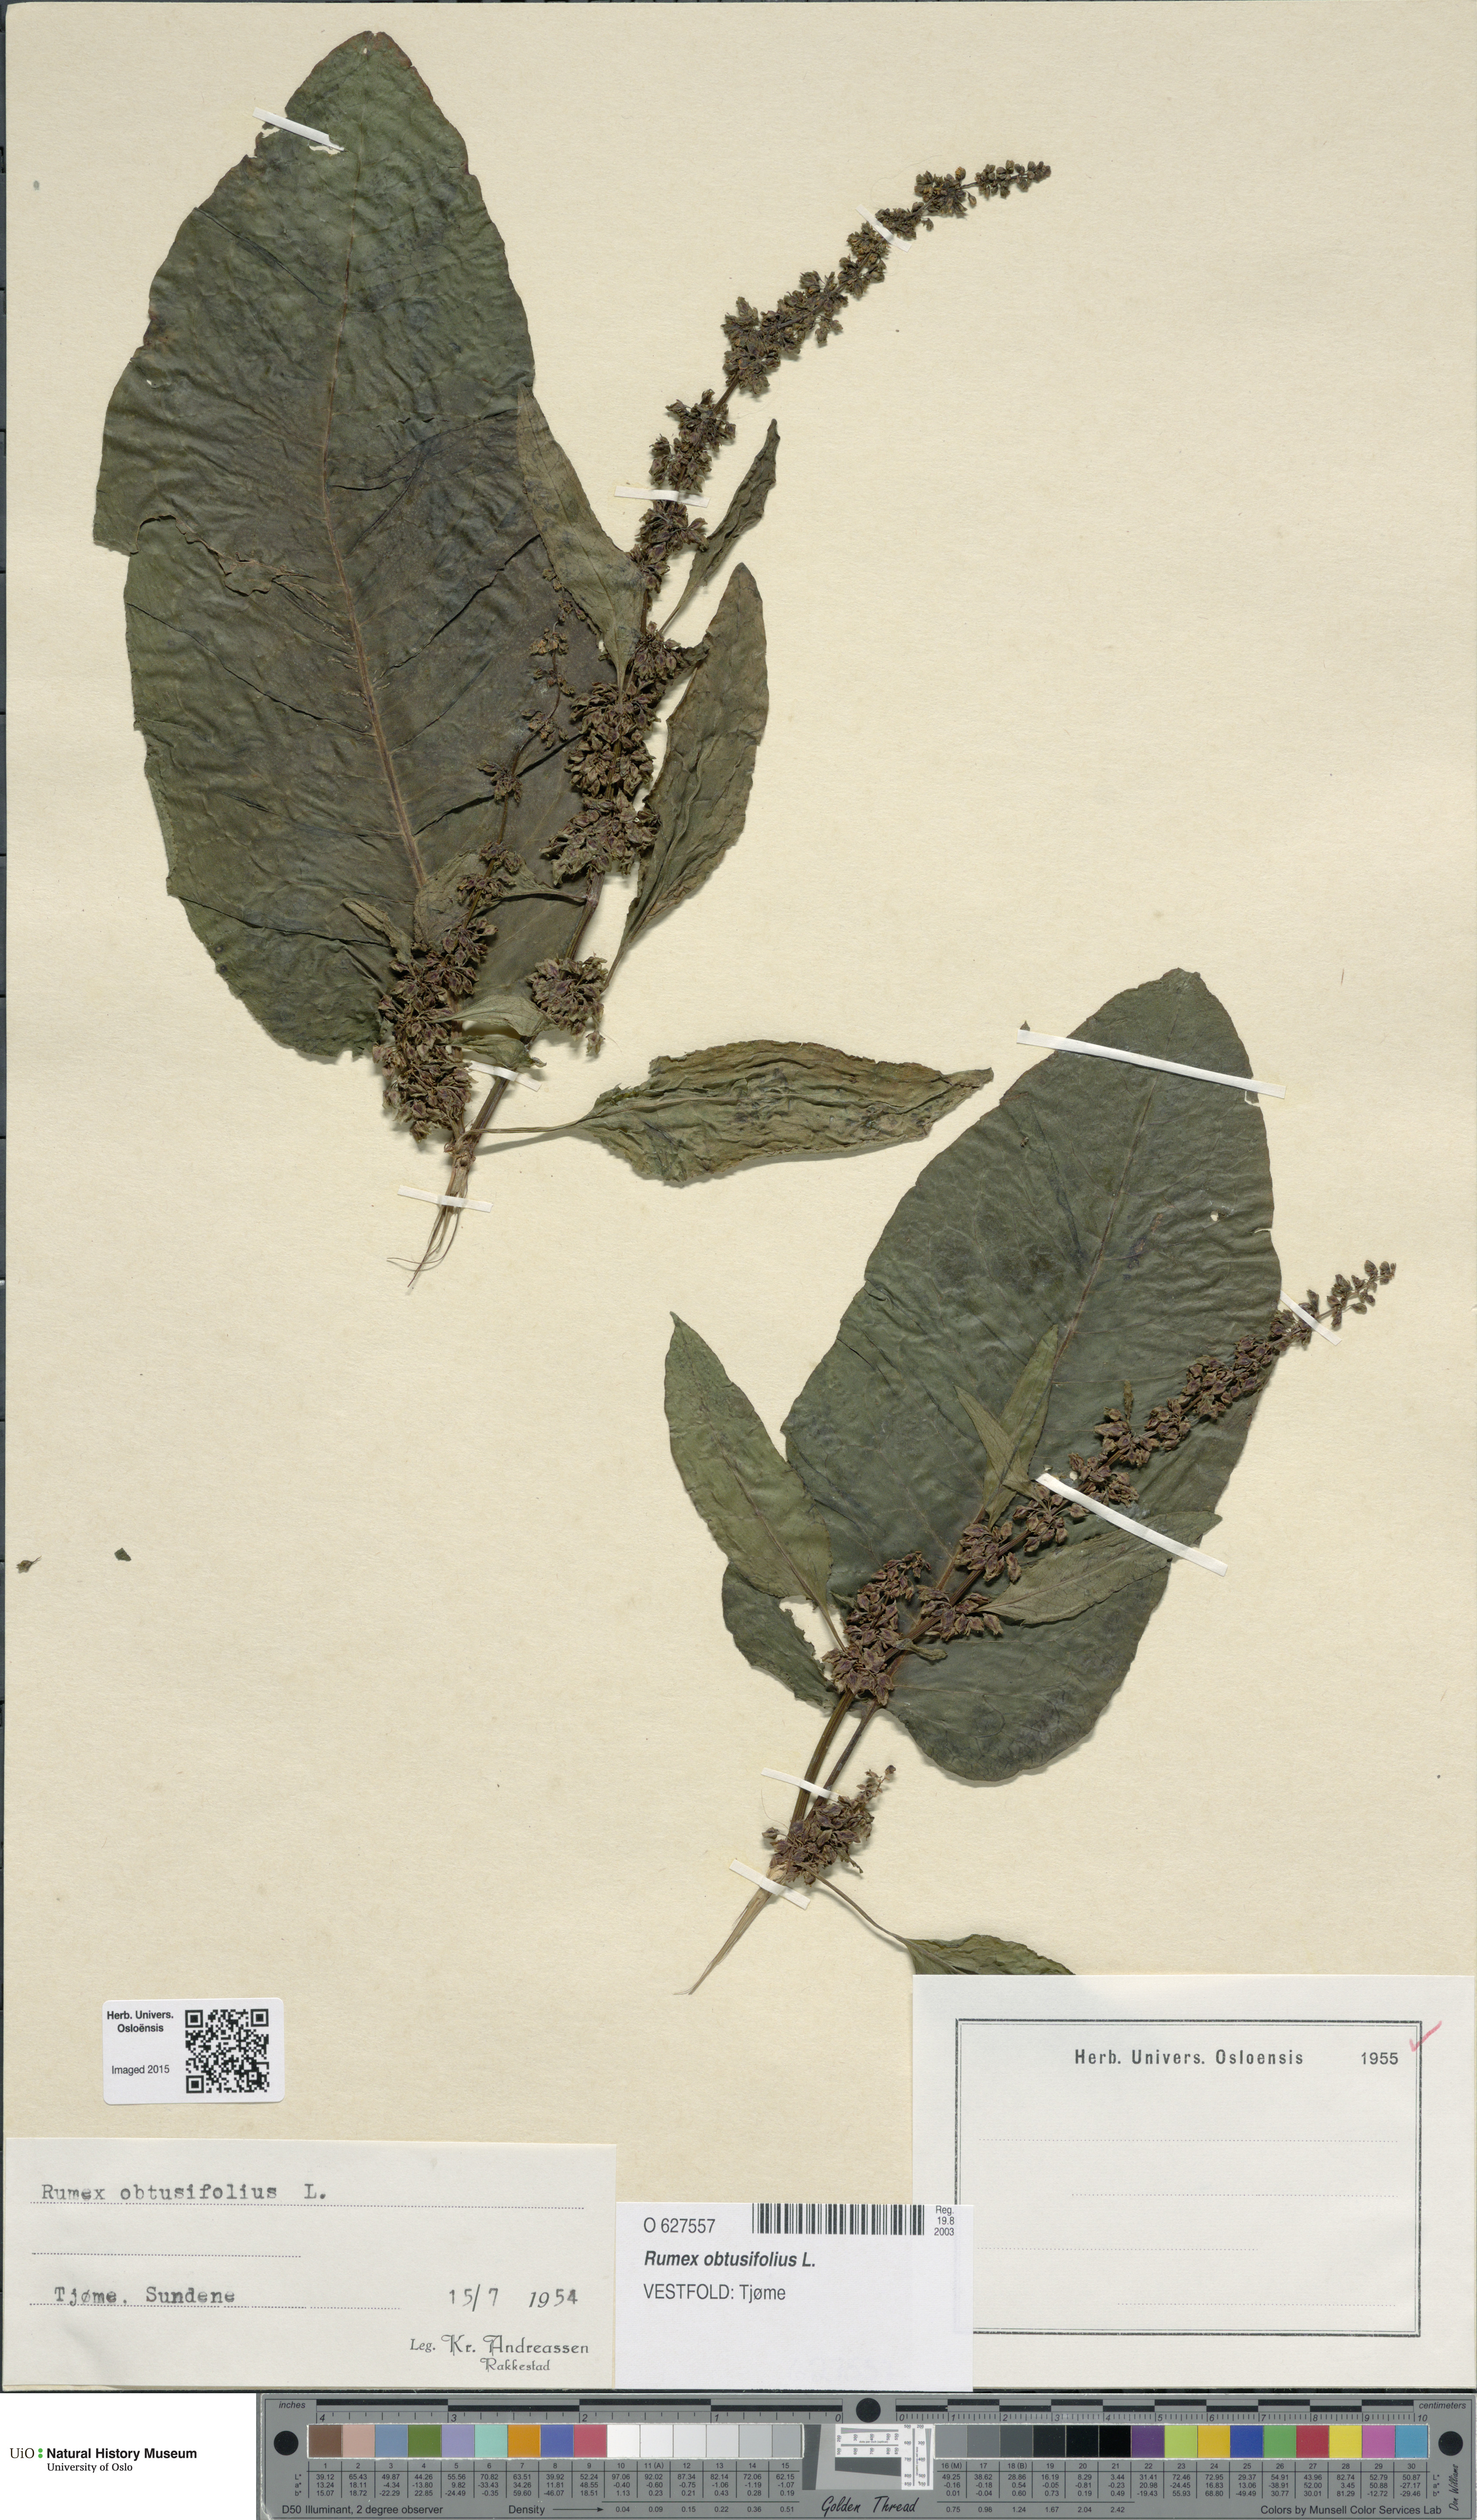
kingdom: Plantae
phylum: Tracheophyta
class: Magnoliopsida
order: Caryophyllales
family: Polygonaceae
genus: Rumex
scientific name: Rumex obtusifolius
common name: Bitter dock
